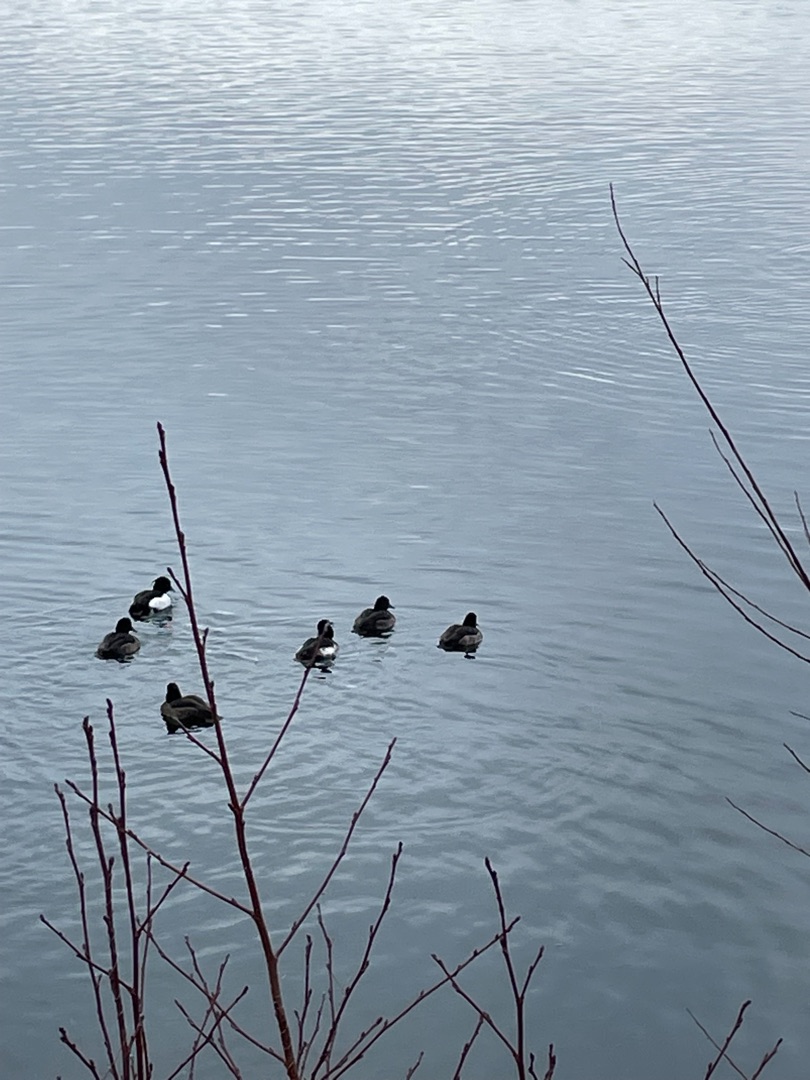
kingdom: Animalia
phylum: Chordata
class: Aves
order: Anseriformes
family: Anatidae
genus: Aythya
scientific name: Aythya fuligula
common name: Troldand
